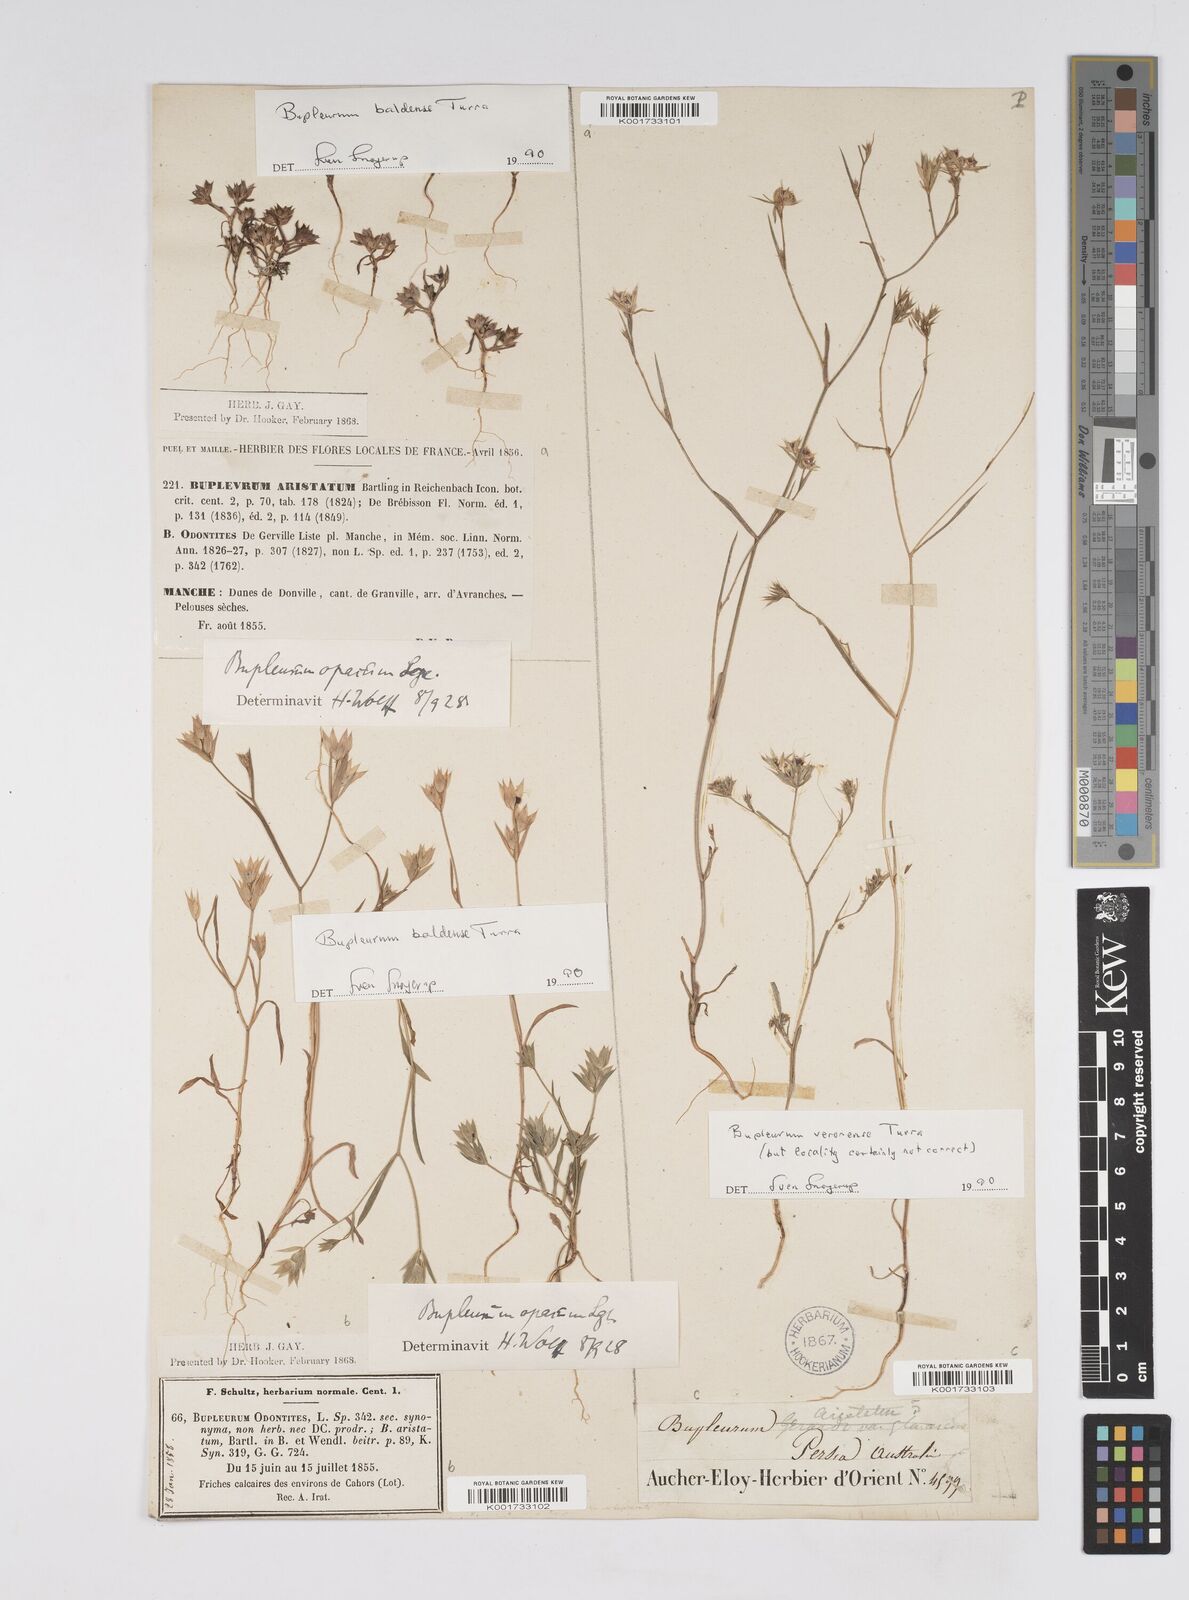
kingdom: Plantae
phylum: Tracheophyta
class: Magnoliopsida
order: Apiales
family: Apiaceae
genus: Bupleurum
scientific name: Bupleurum baldense
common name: Small hare's-ear
